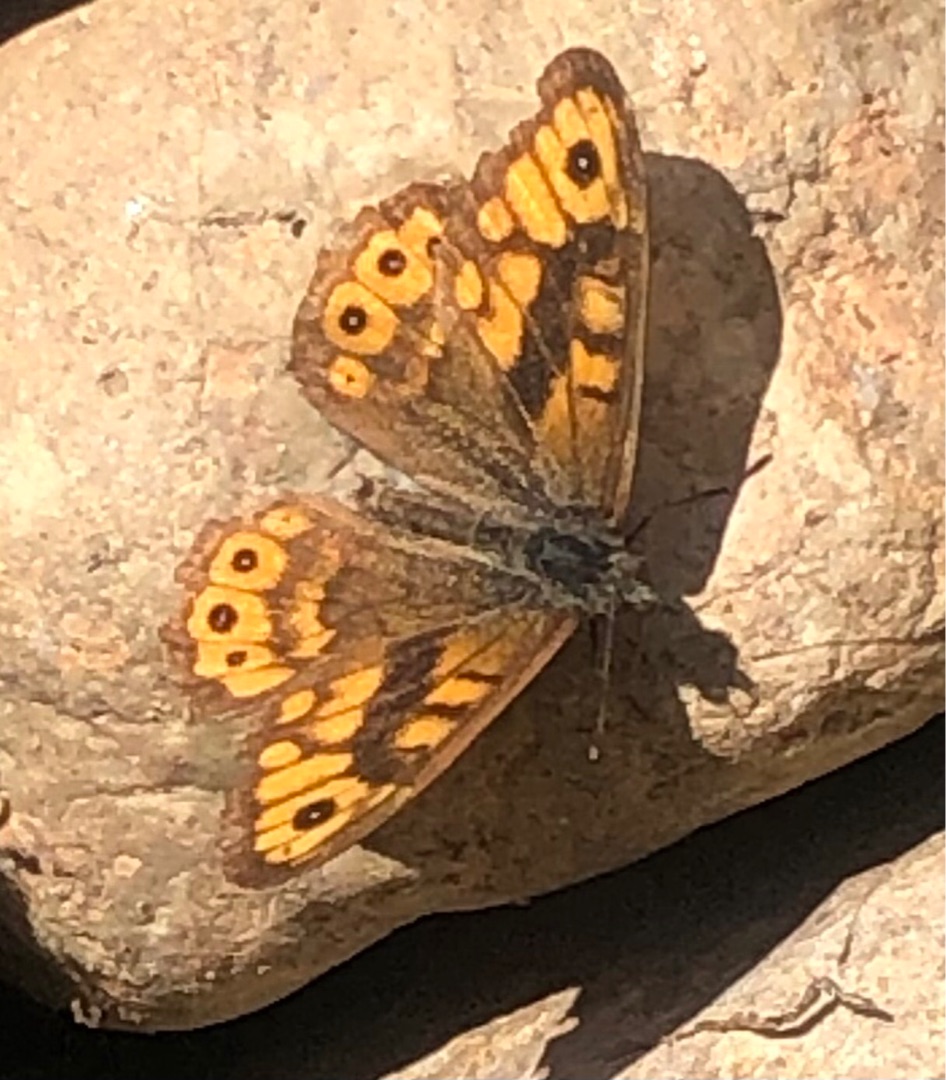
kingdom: Animalia
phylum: Arthropoda
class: Insecta
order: Lepidoptera
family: Nymphalidae
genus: Pararge
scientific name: Pararge Lasiommata megera
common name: Vejrandøje
